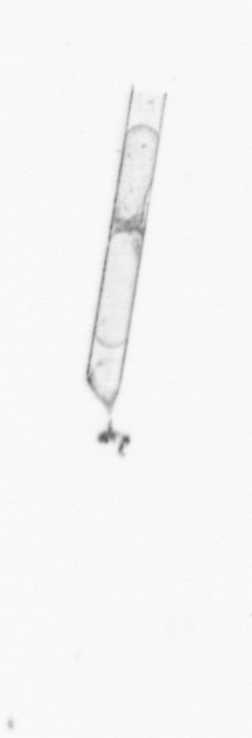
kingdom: Chromista
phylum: Ochrophyta
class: Bacillariophyceae
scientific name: Bacillariophyceae
